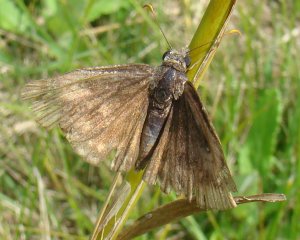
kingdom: Animalia
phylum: Arthropoda
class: Insecta
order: Lepidoptera
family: Hesperiidae
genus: Gesta
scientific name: Gesta
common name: Wild Indigo Duskywing
